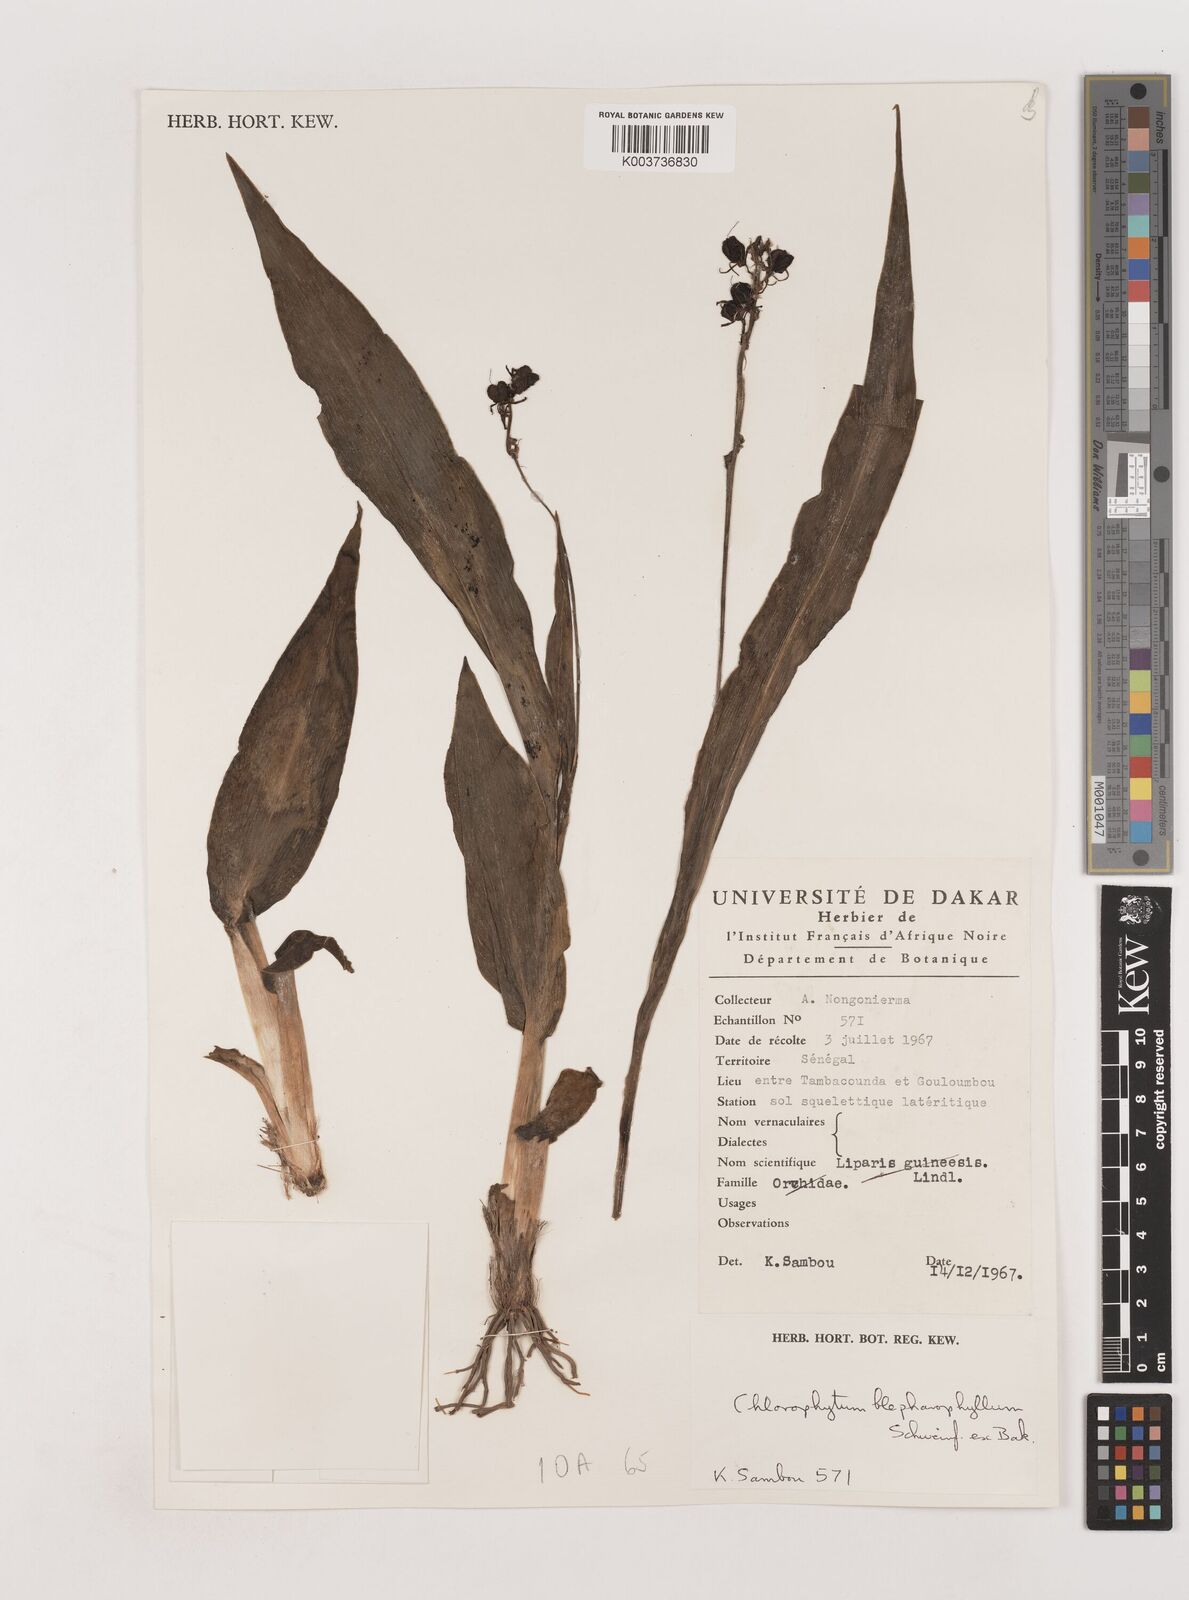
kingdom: Plantae
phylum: Tracheophyta
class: Liliopsida
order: Asparagales
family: Asparagaceae
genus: Chlorophytum
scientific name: Chlorophytum blepharophyllum
